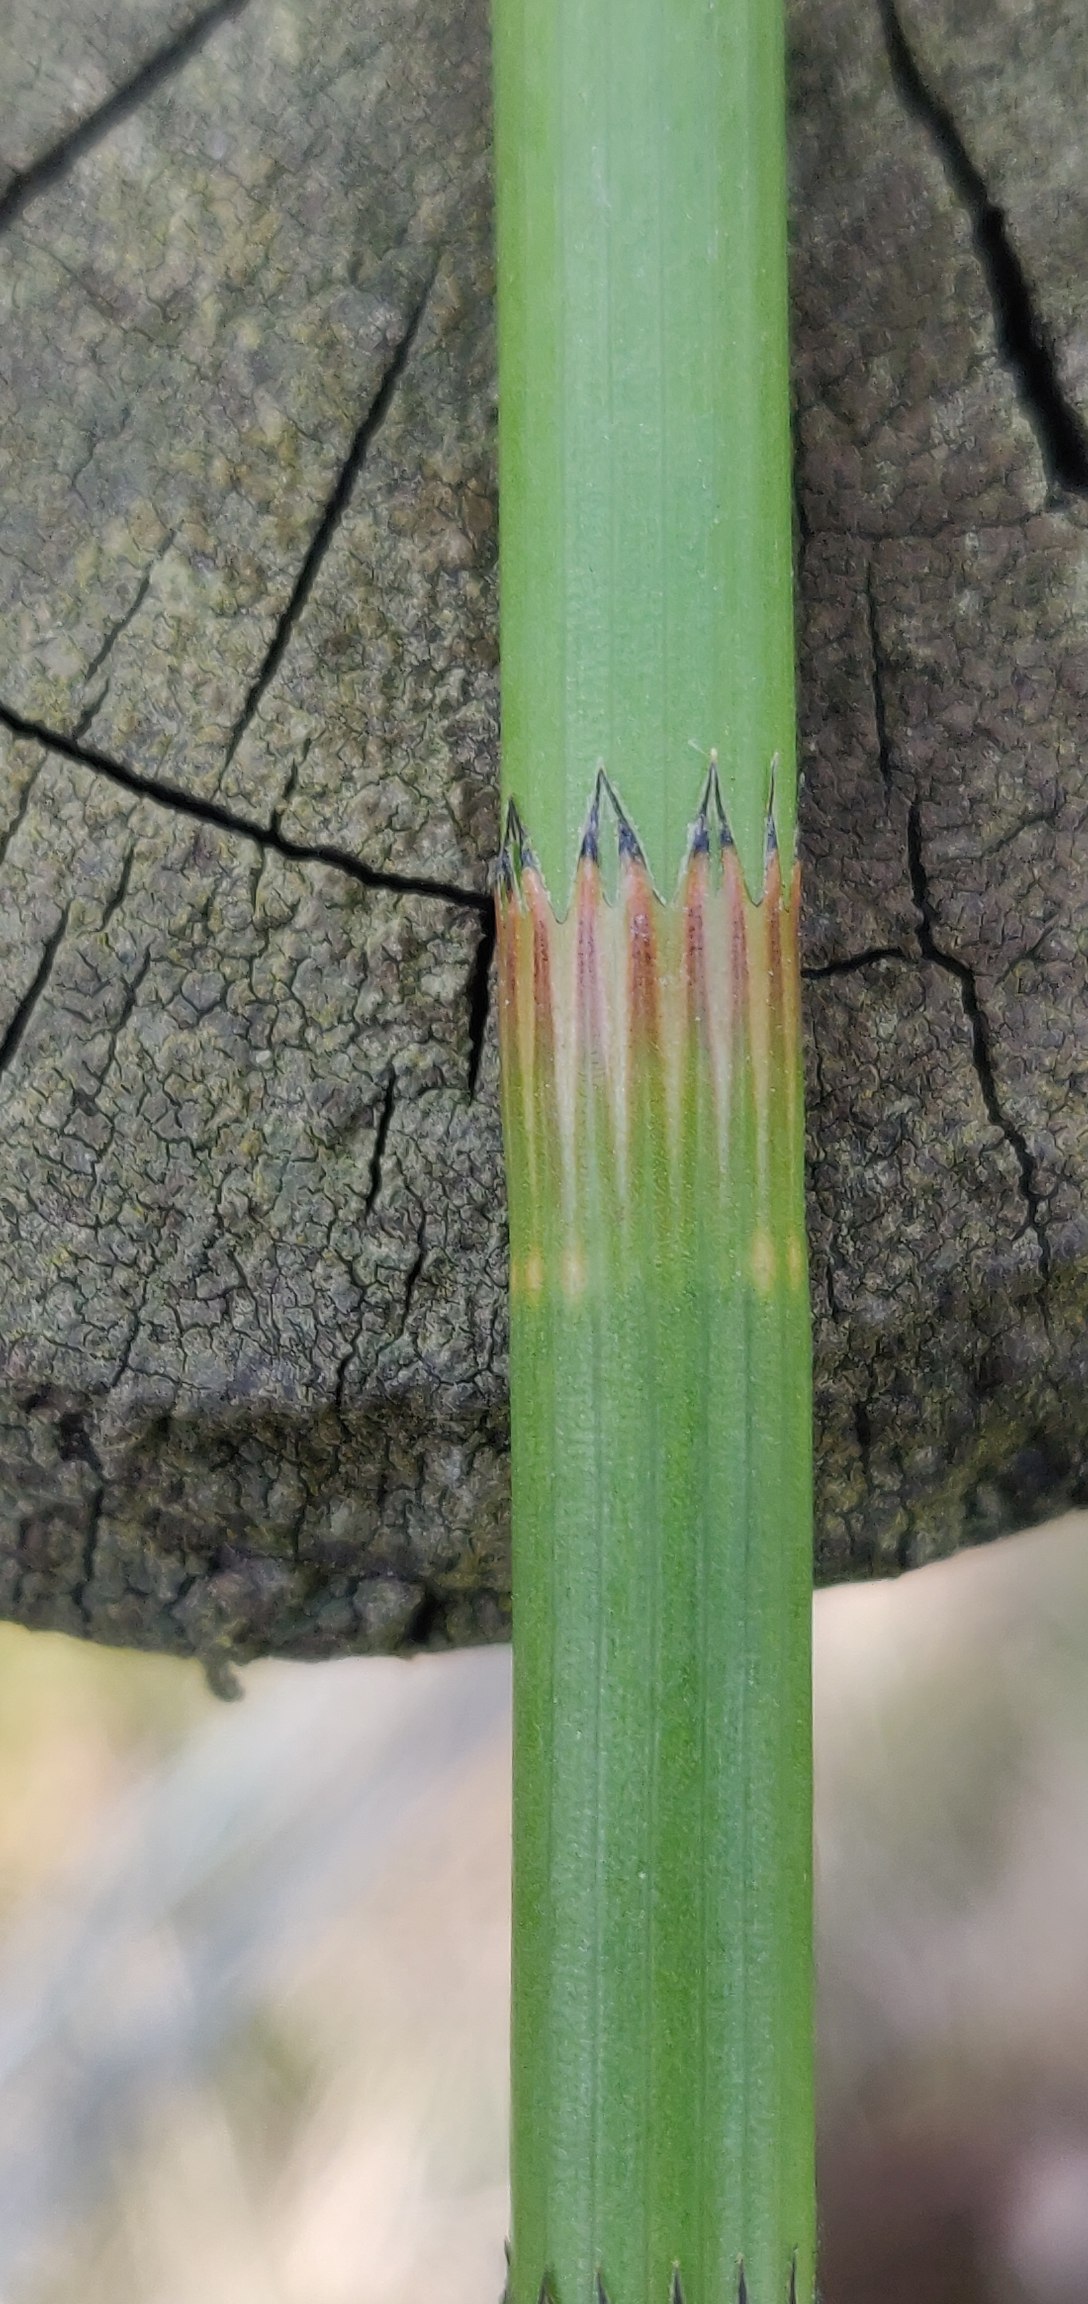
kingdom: Plantae
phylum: Tracheophyta
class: Polypodiopsida
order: Equisetales
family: Equisetaceae
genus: Equisetum
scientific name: Equisetum fluviatile
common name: Dynd-padderok
